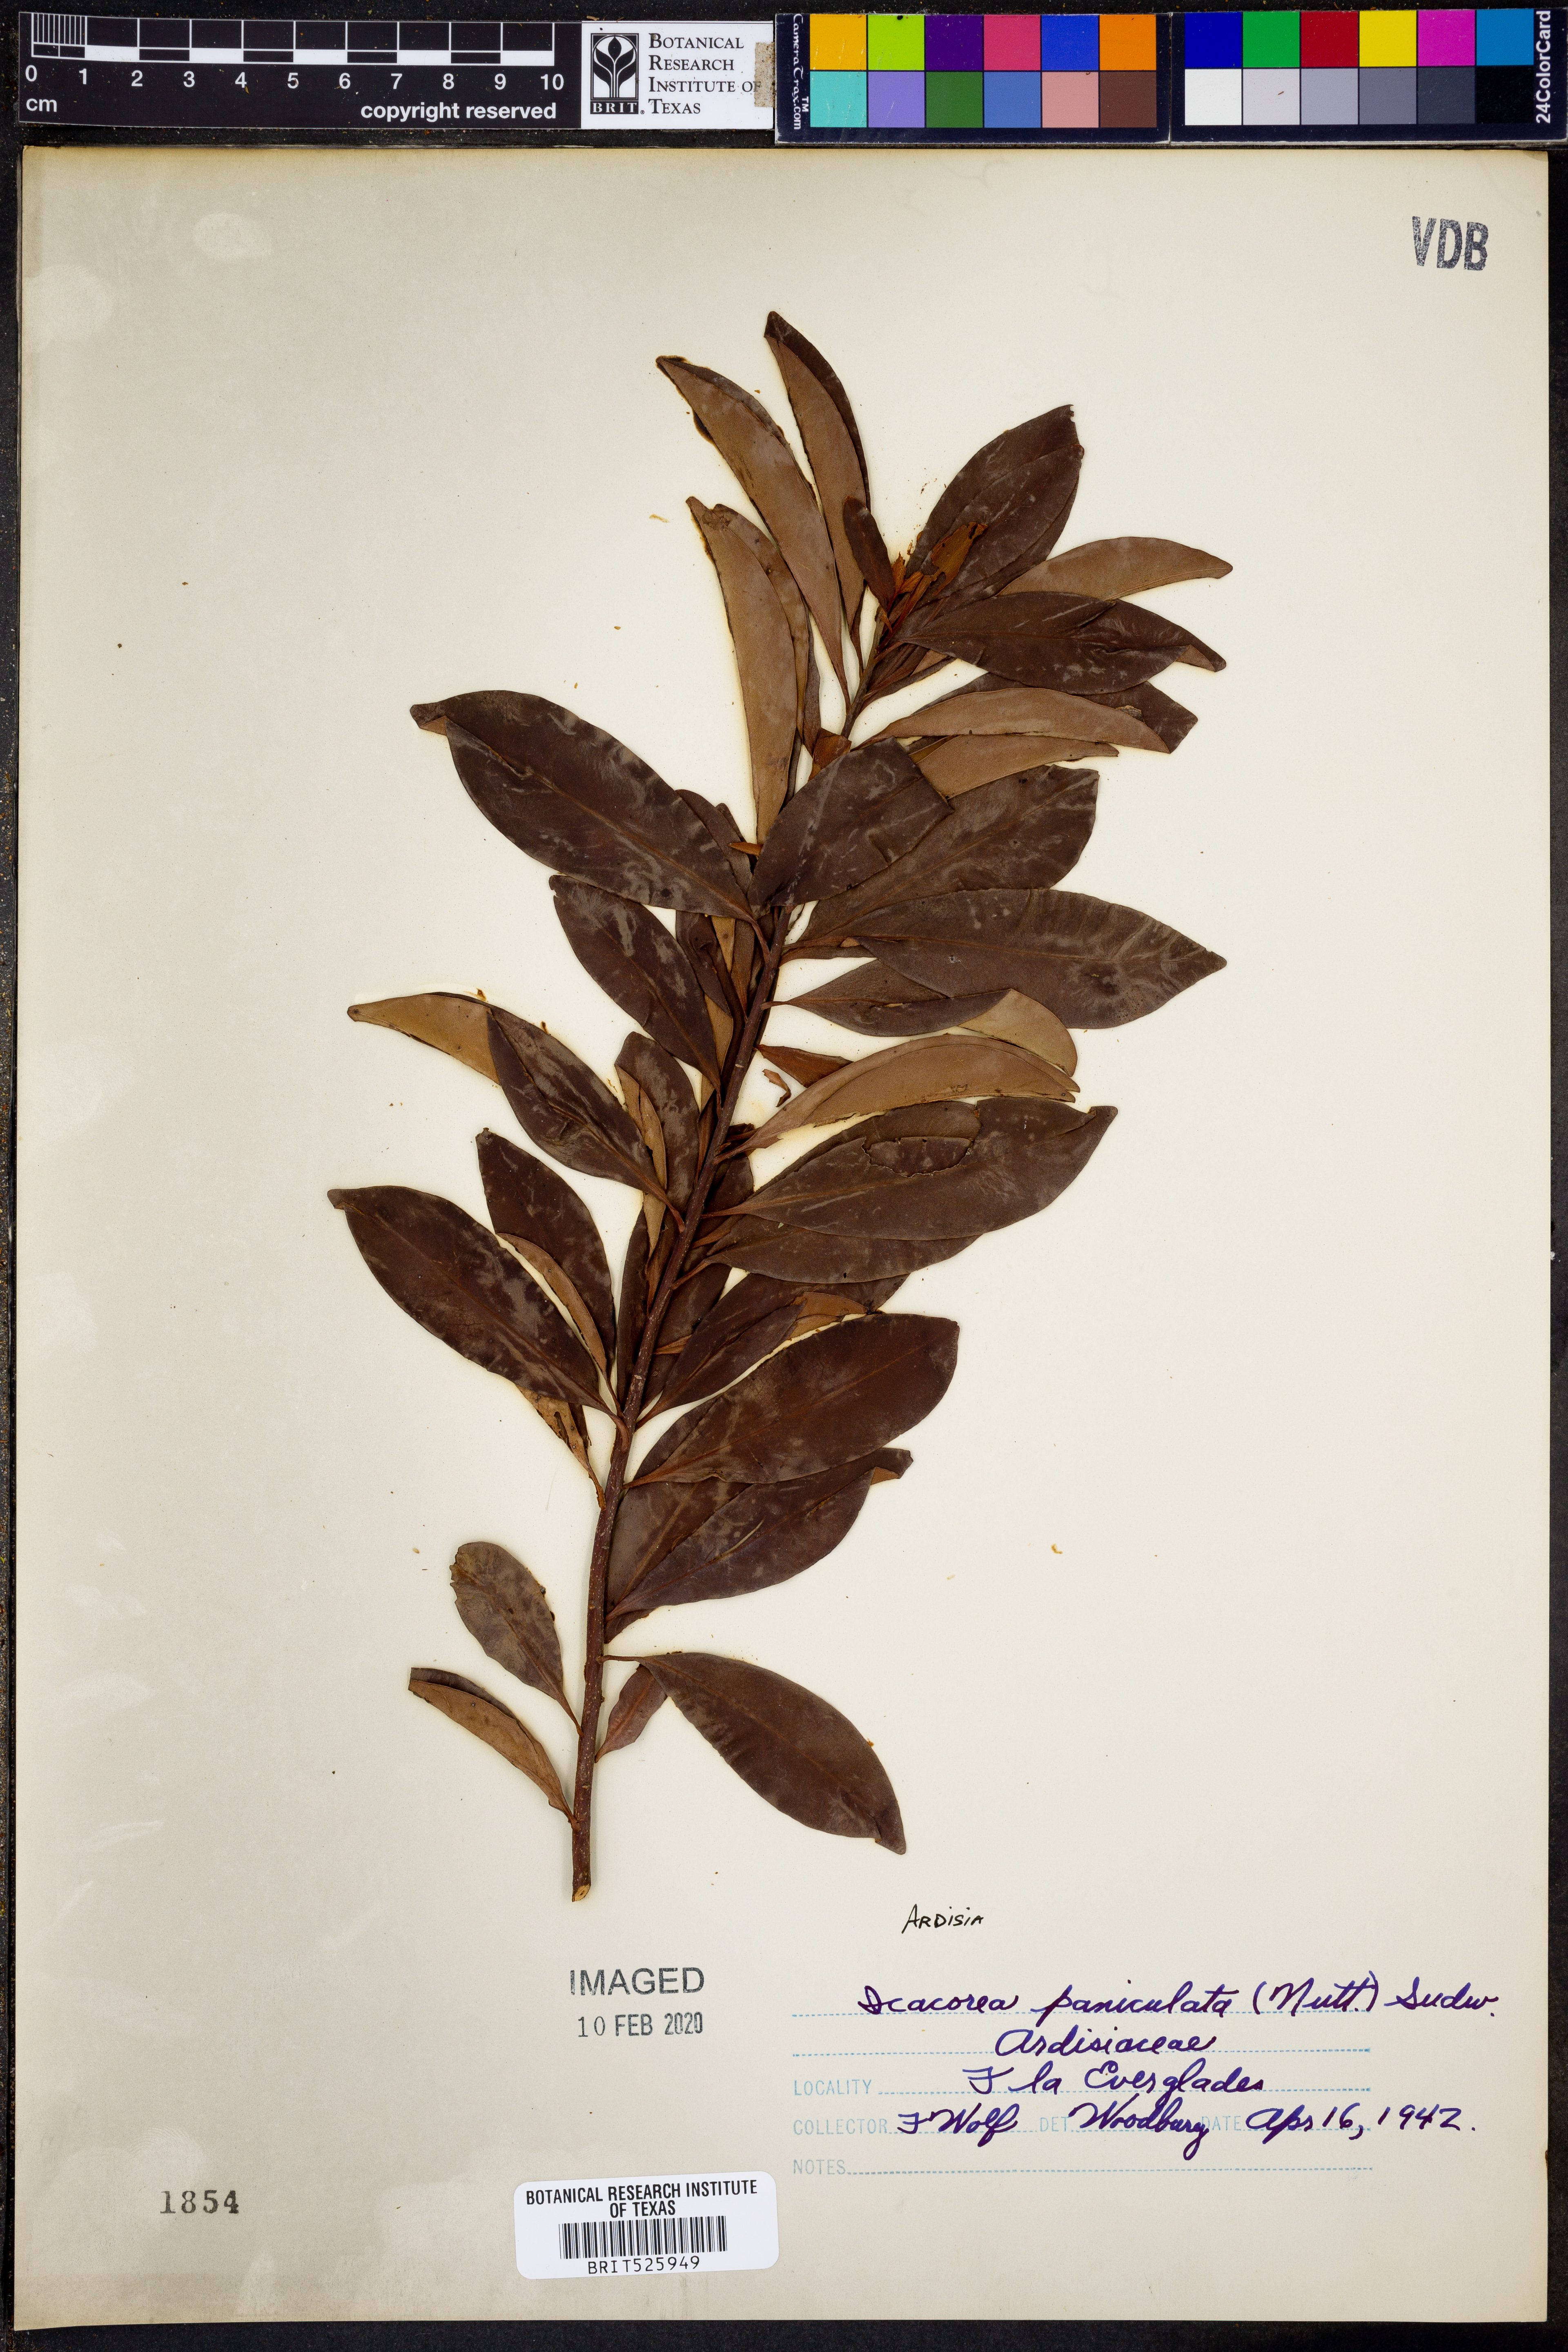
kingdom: Plantae
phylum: Tracheophyta
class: Magnoliopsida
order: Ericales
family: Primulaceae
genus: Ardisia
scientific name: Ardisia escallonioides
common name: Island marlberry
